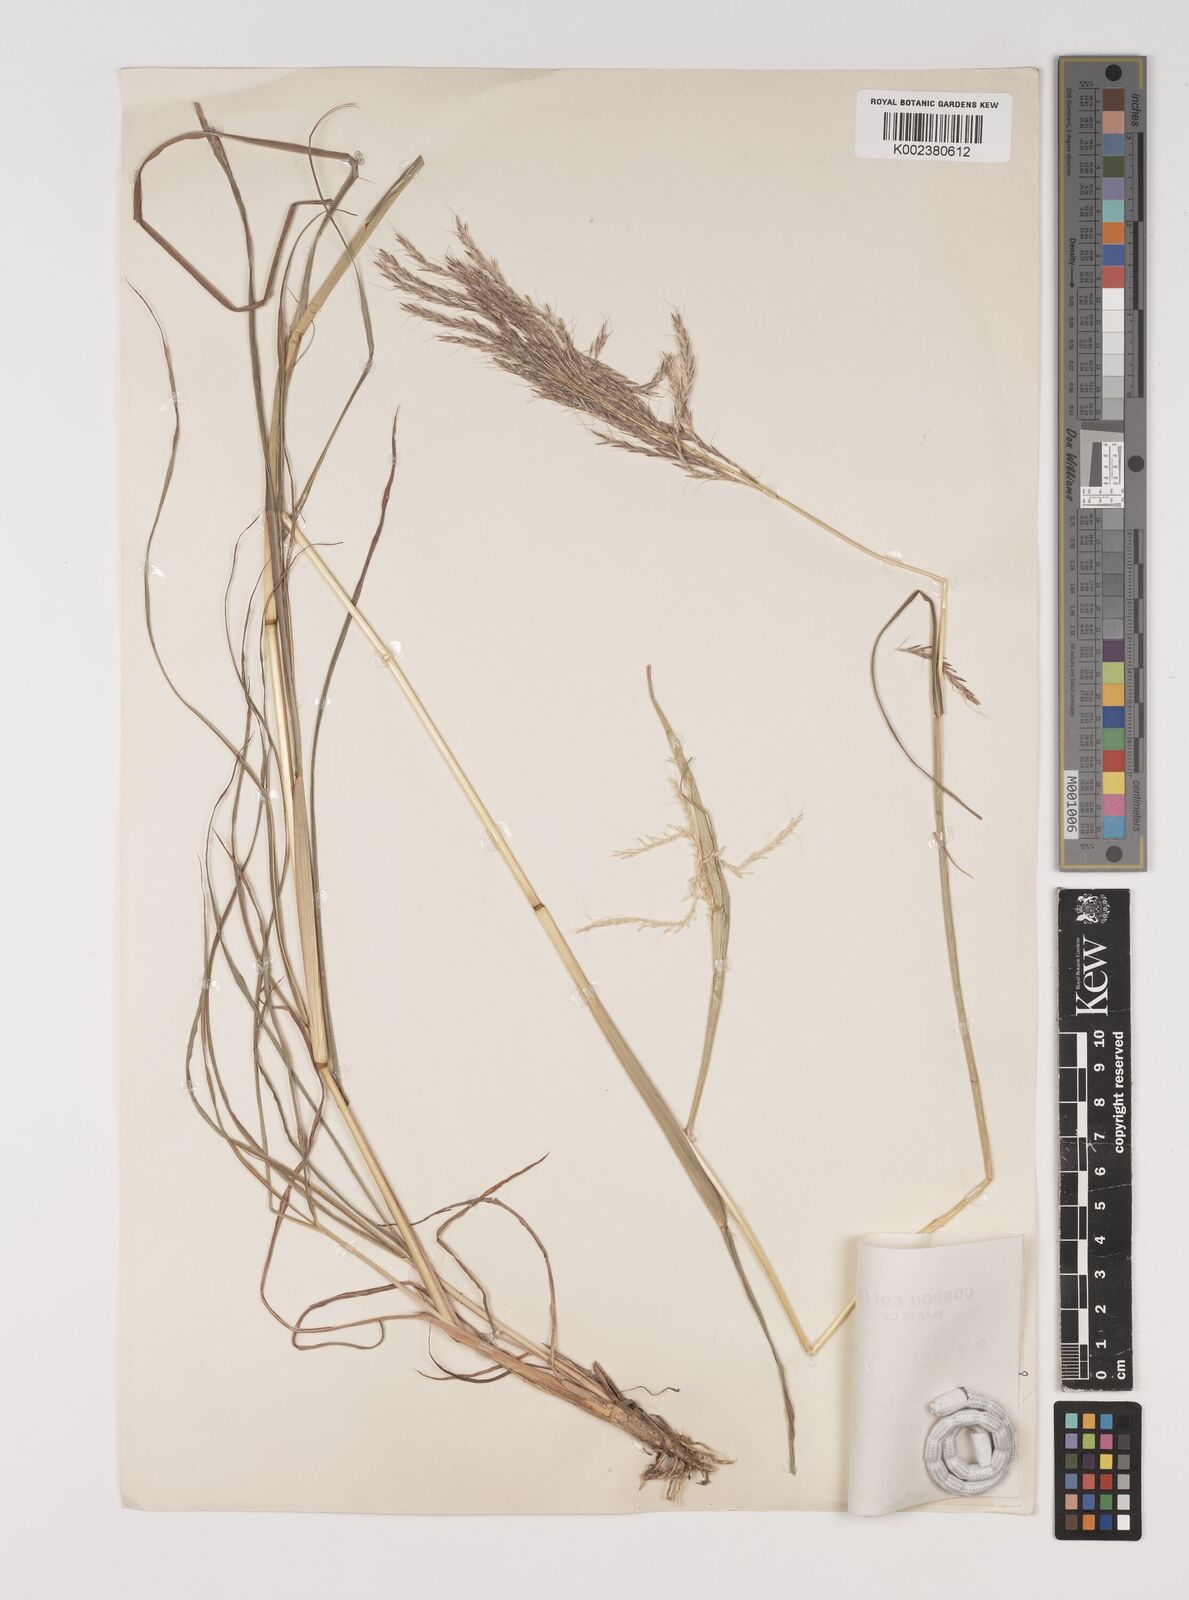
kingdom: Plantae
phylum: Tracheophyta
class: Liliopsida
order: Poales
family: Poaceae
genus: Bothriochloa
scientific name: Bothriochloa bladhii
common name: Caucasian bluestem
